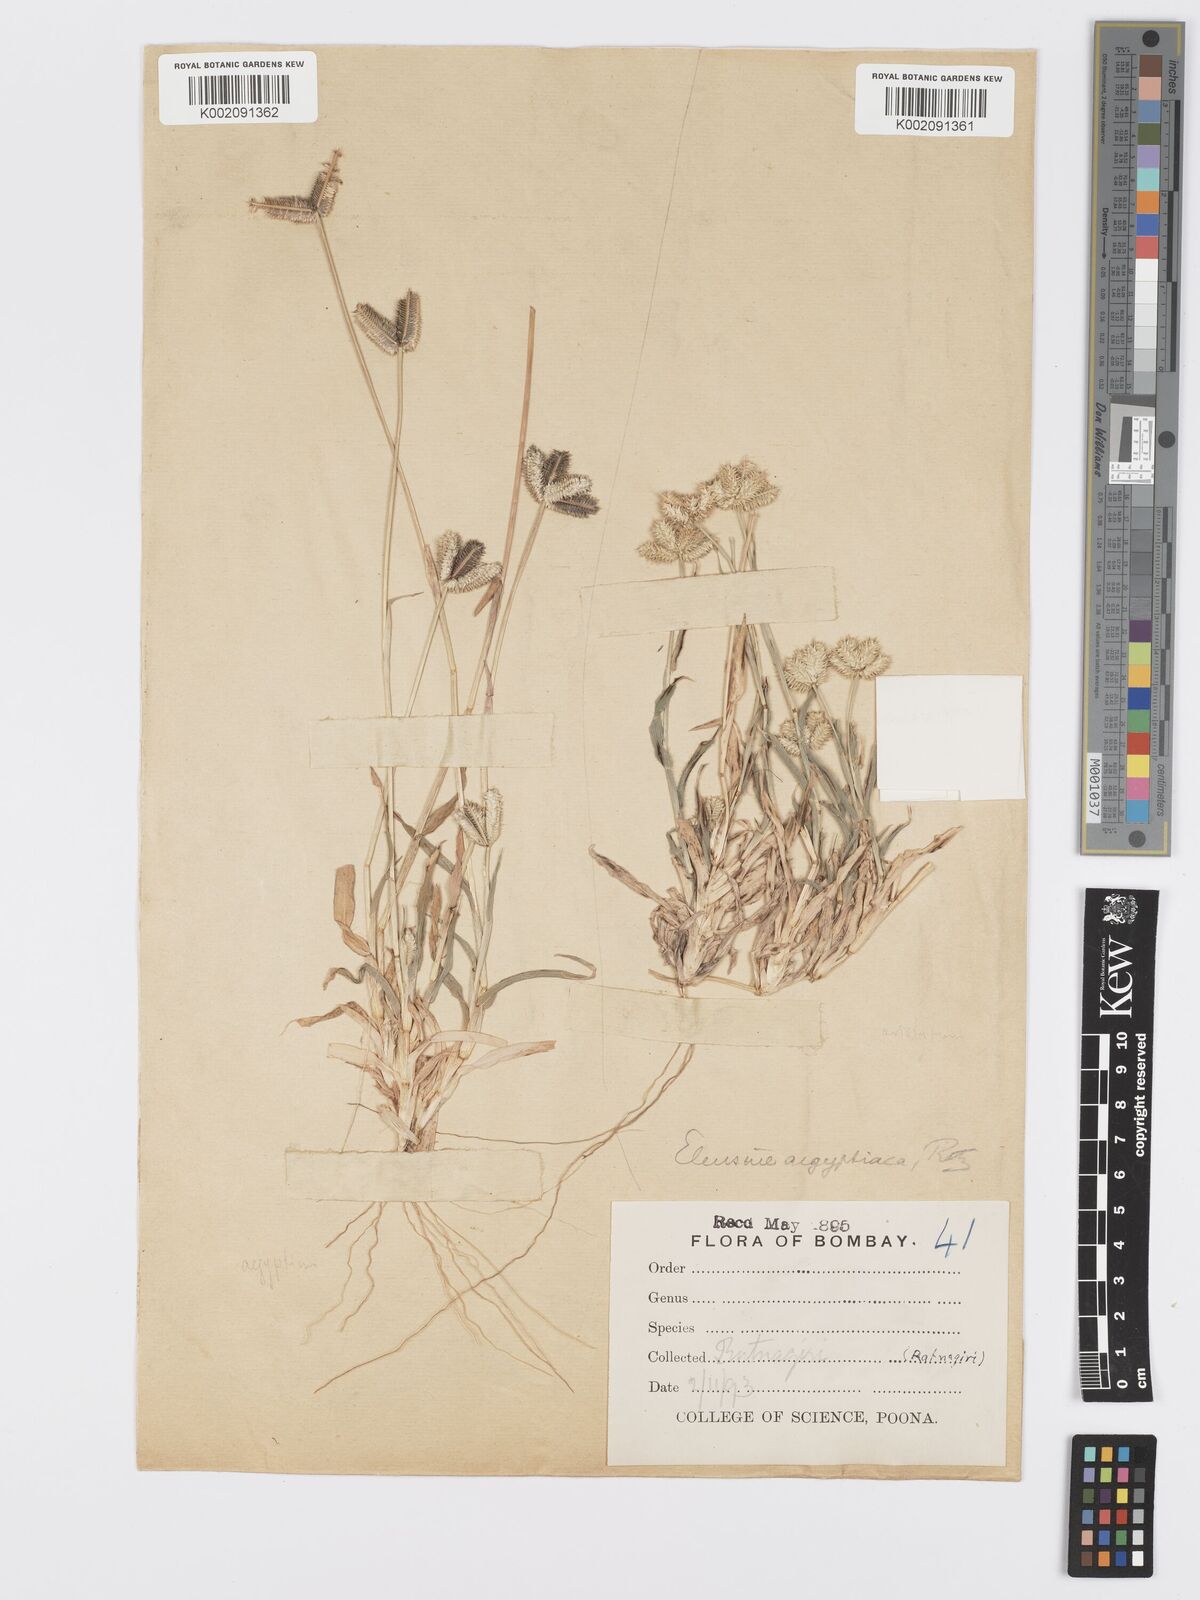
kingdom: Plantae
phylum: Tracheophyta
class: Liliopsida
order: Poales
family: Poaceae
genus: Dactyloctenium
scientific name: Dactyloctenium aristatum
